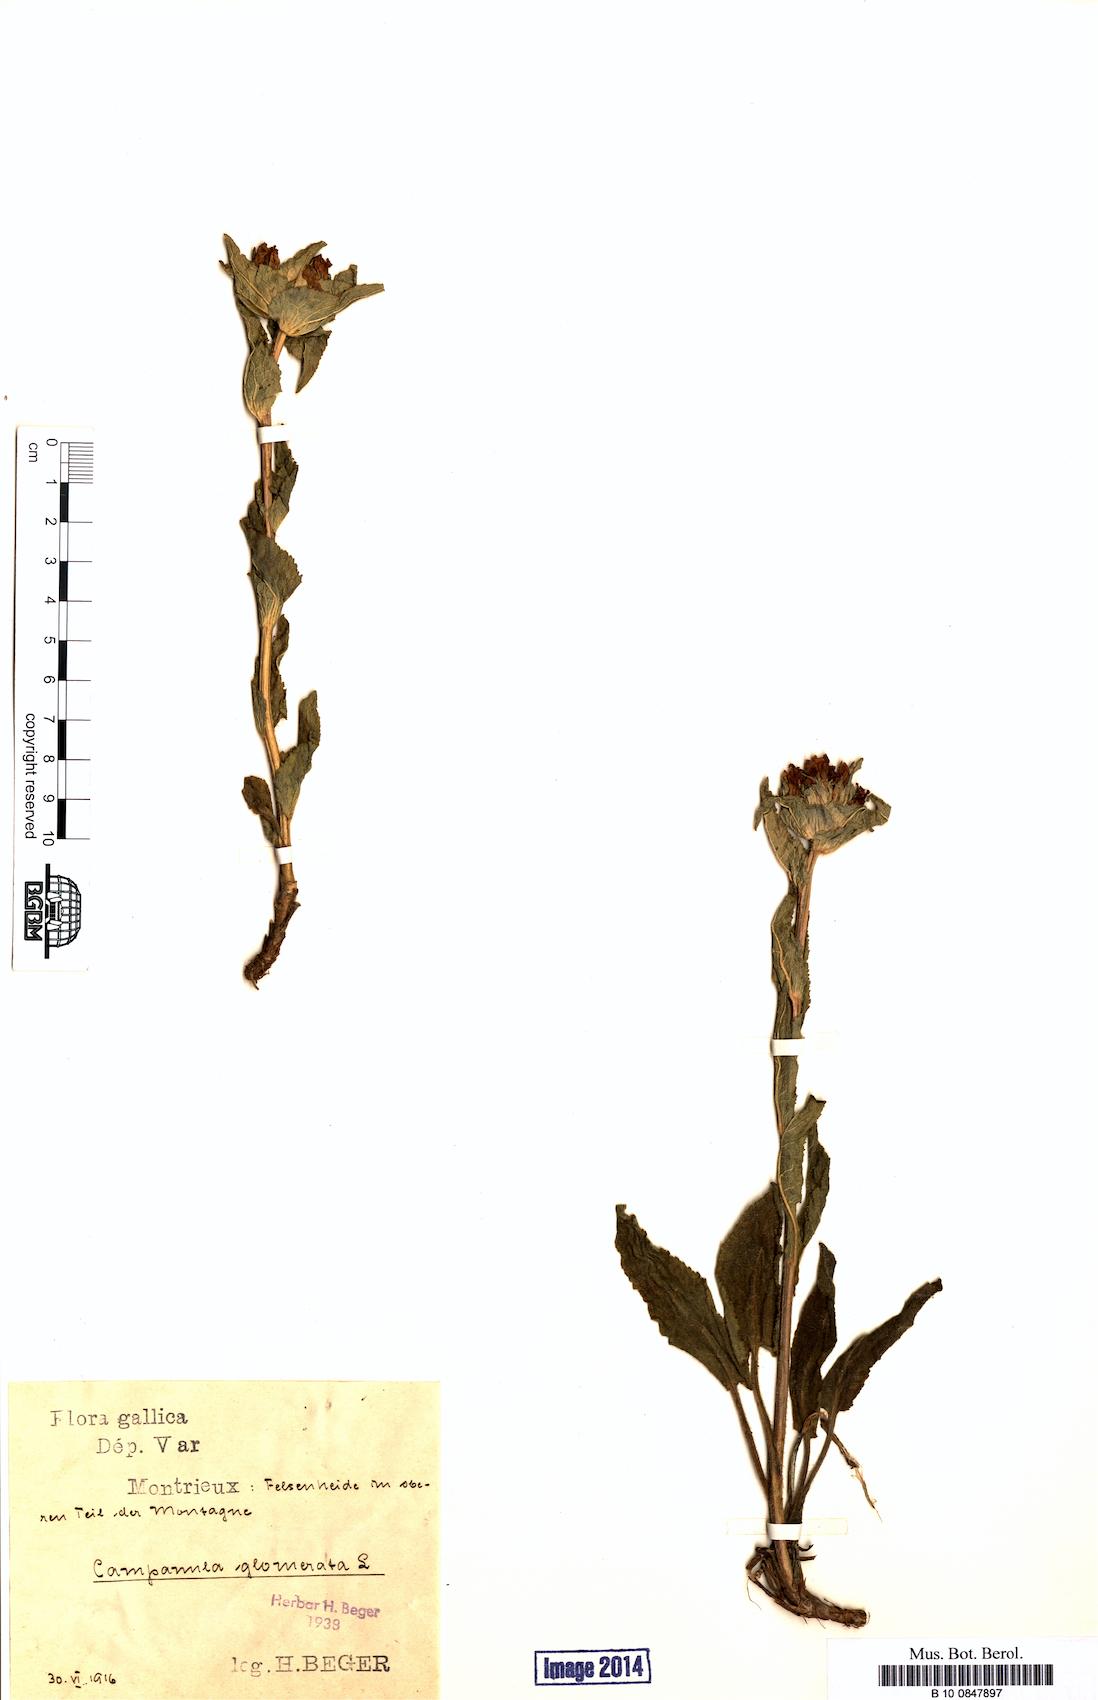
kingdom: Plantae
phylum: Tracheophyta
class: Magnoliopsida
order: Asterales
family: Campanulaceae
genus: Campanula
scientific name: Campanula glomerata
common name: Clustered bellflower
